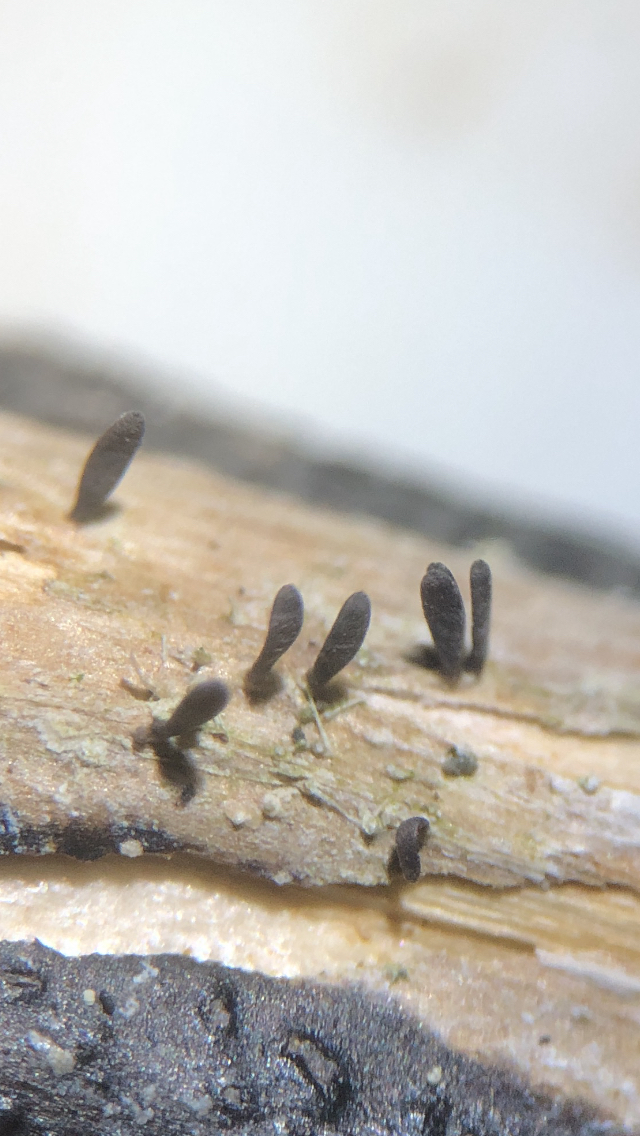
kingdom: Fungi
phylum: Ascomycota
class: Dothideomycetes
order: Acrospermales
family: Acrospermaceae
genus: Acrospermum
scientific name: Acrospermum compressum
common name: nælde-stængeltunge
